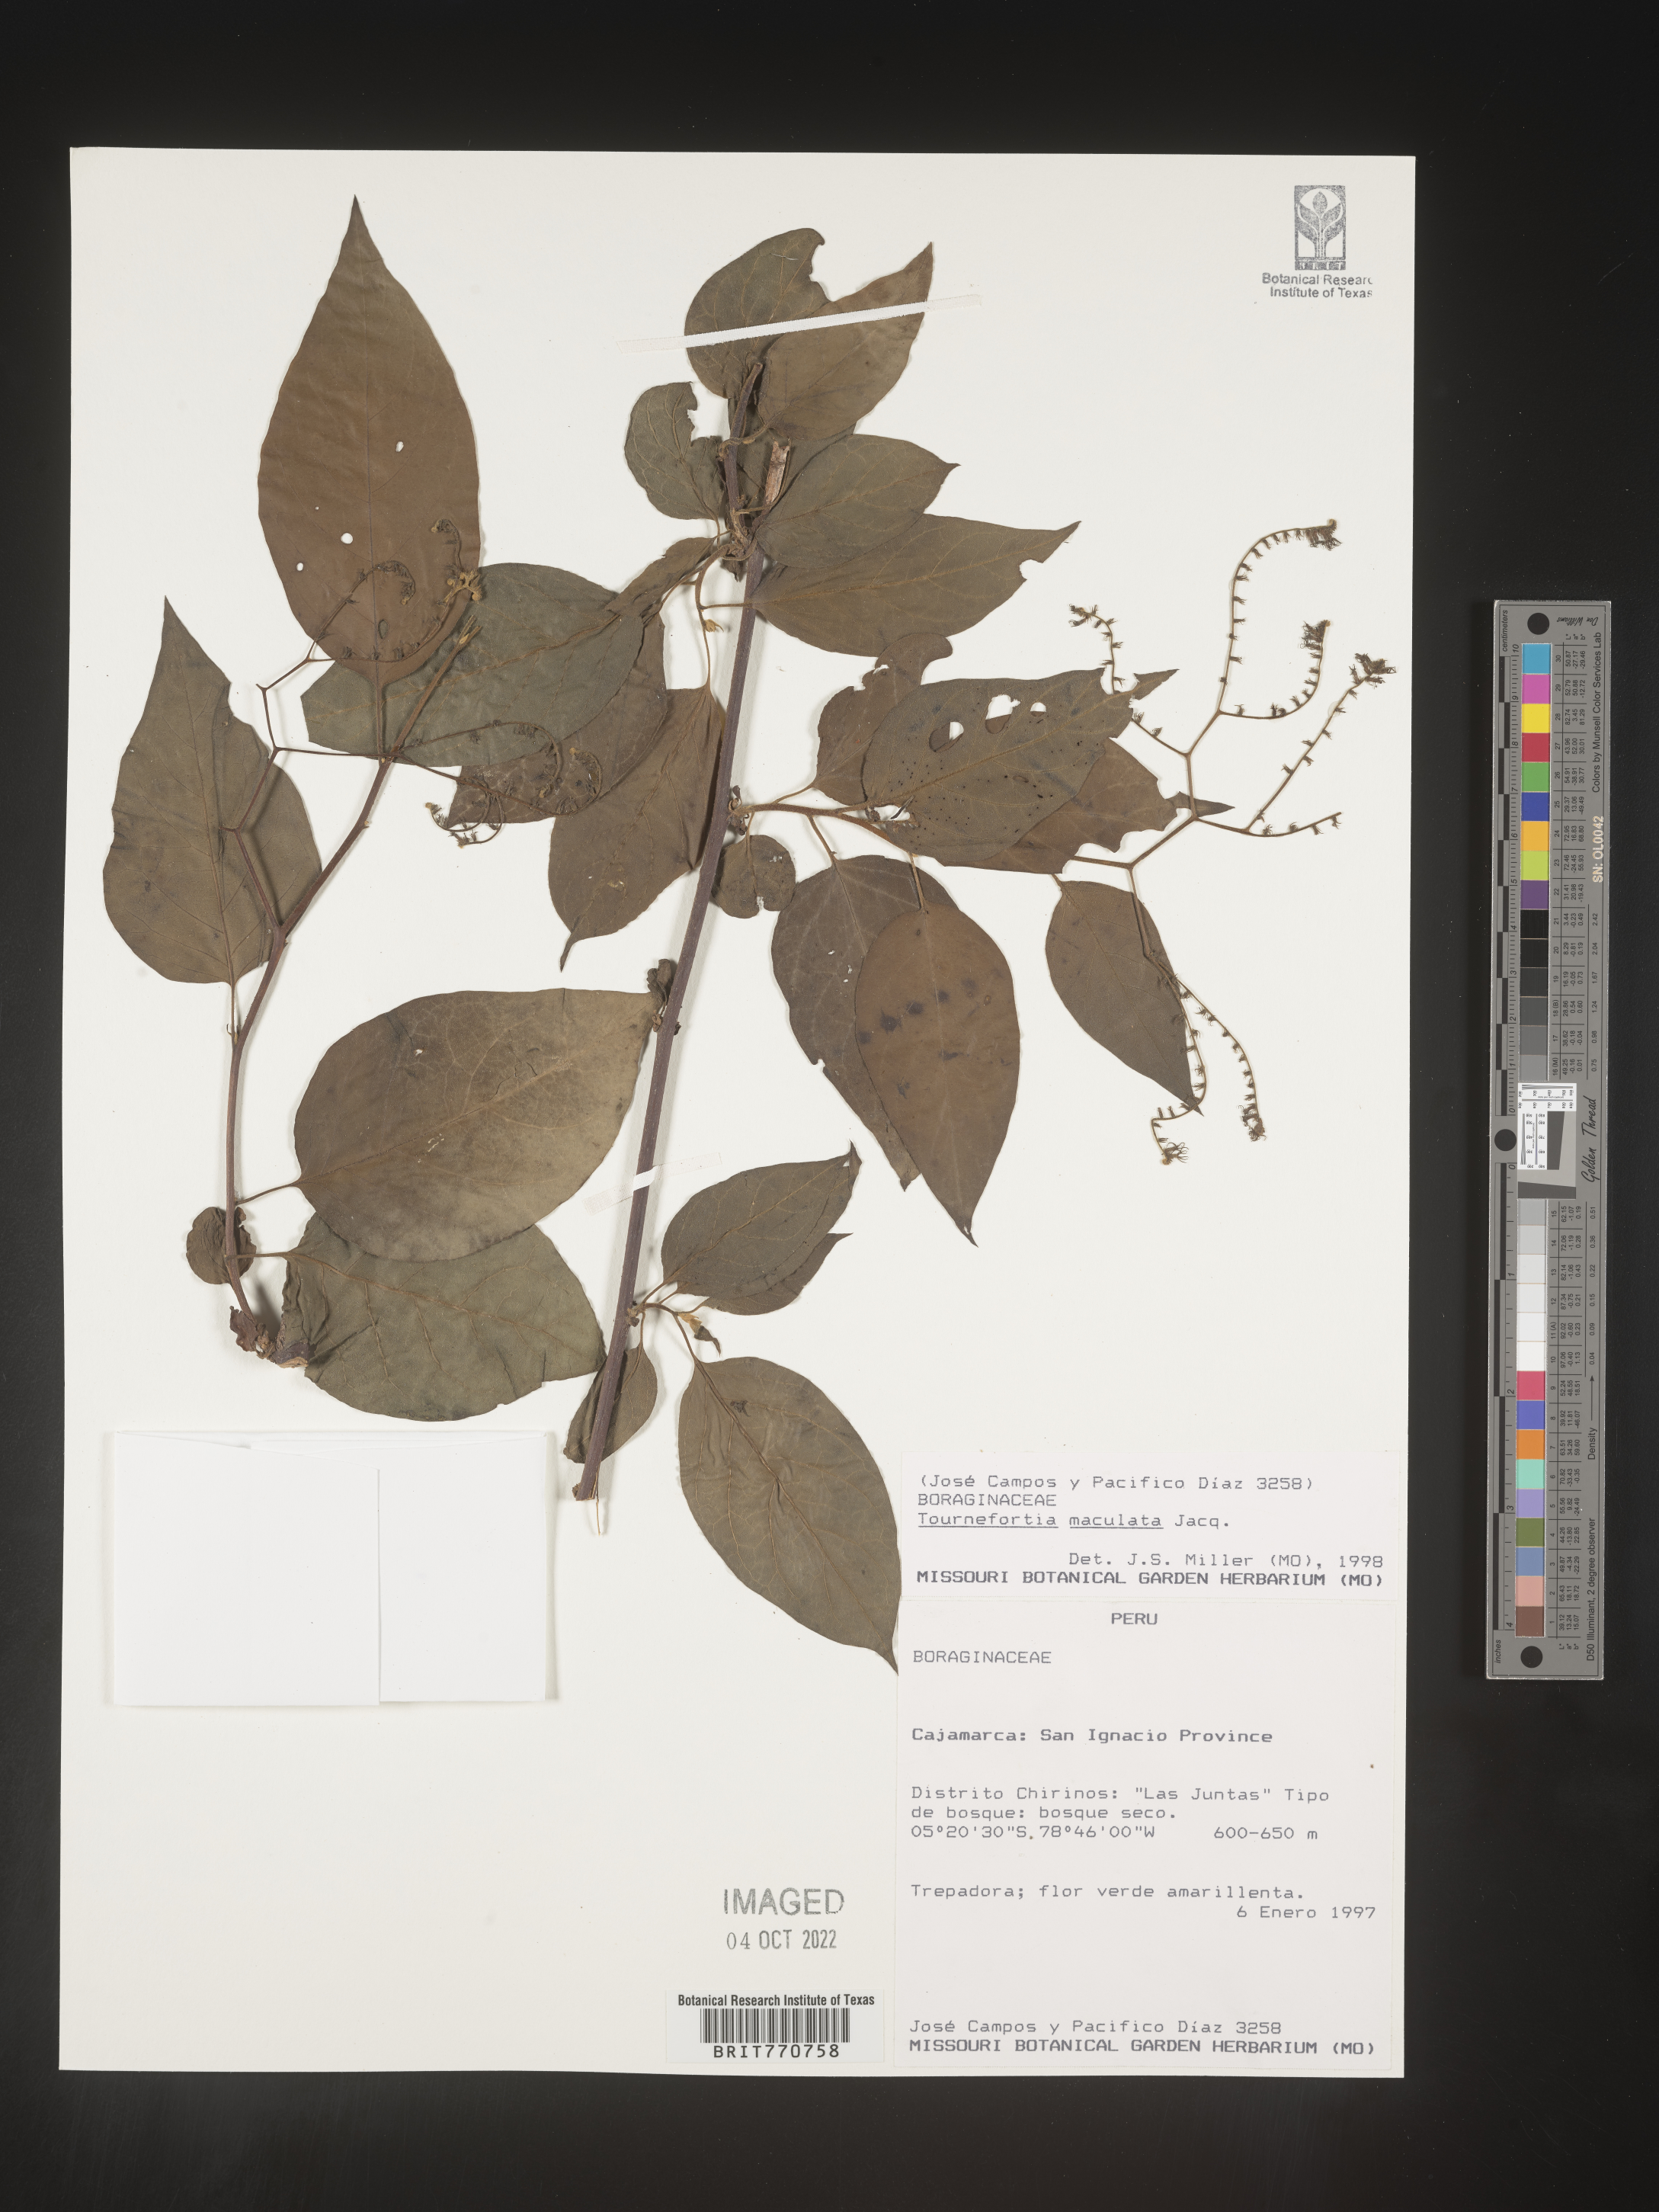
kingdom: Plantae
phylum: Tracheophyta
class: Magnoliopsida
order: Boraginales
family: Heliotropiaceae
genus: Tournefortia
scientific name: Tournefortia
